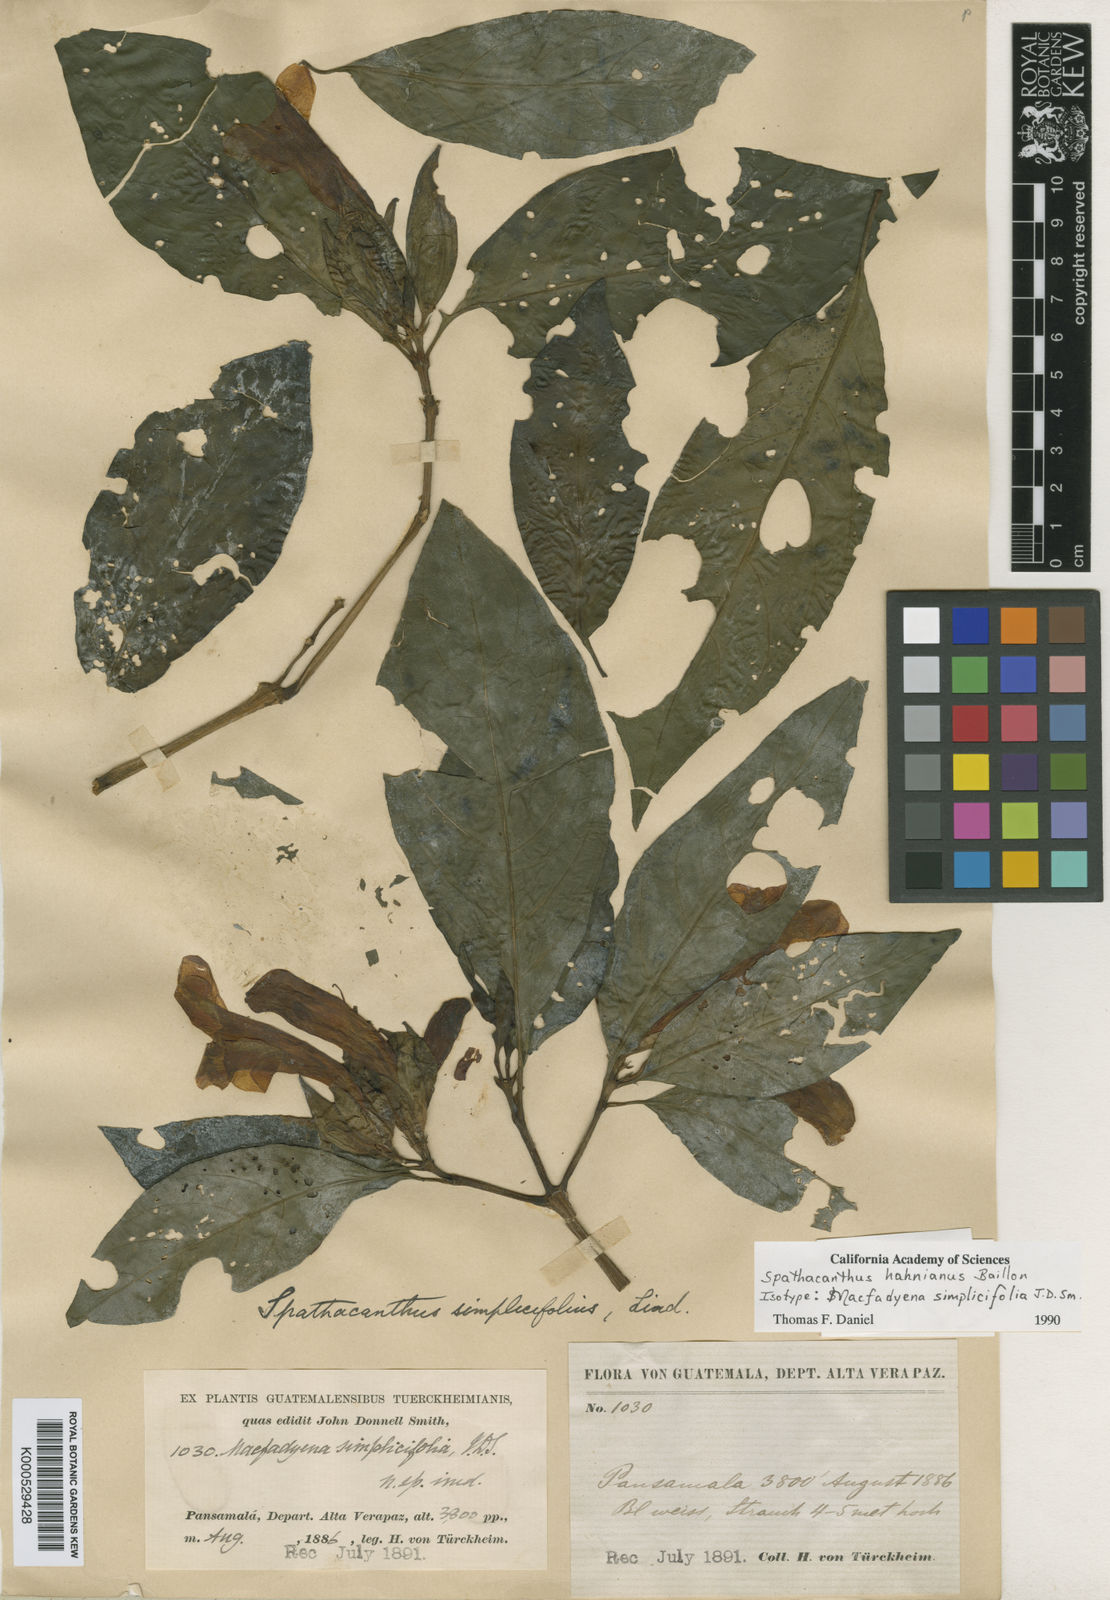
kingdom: Plantae
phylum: Tracheophyta
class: Magnoliopsida
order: Lamiales
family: Acanthaceae
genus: Spathacanthus
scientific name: Spathacanthus
